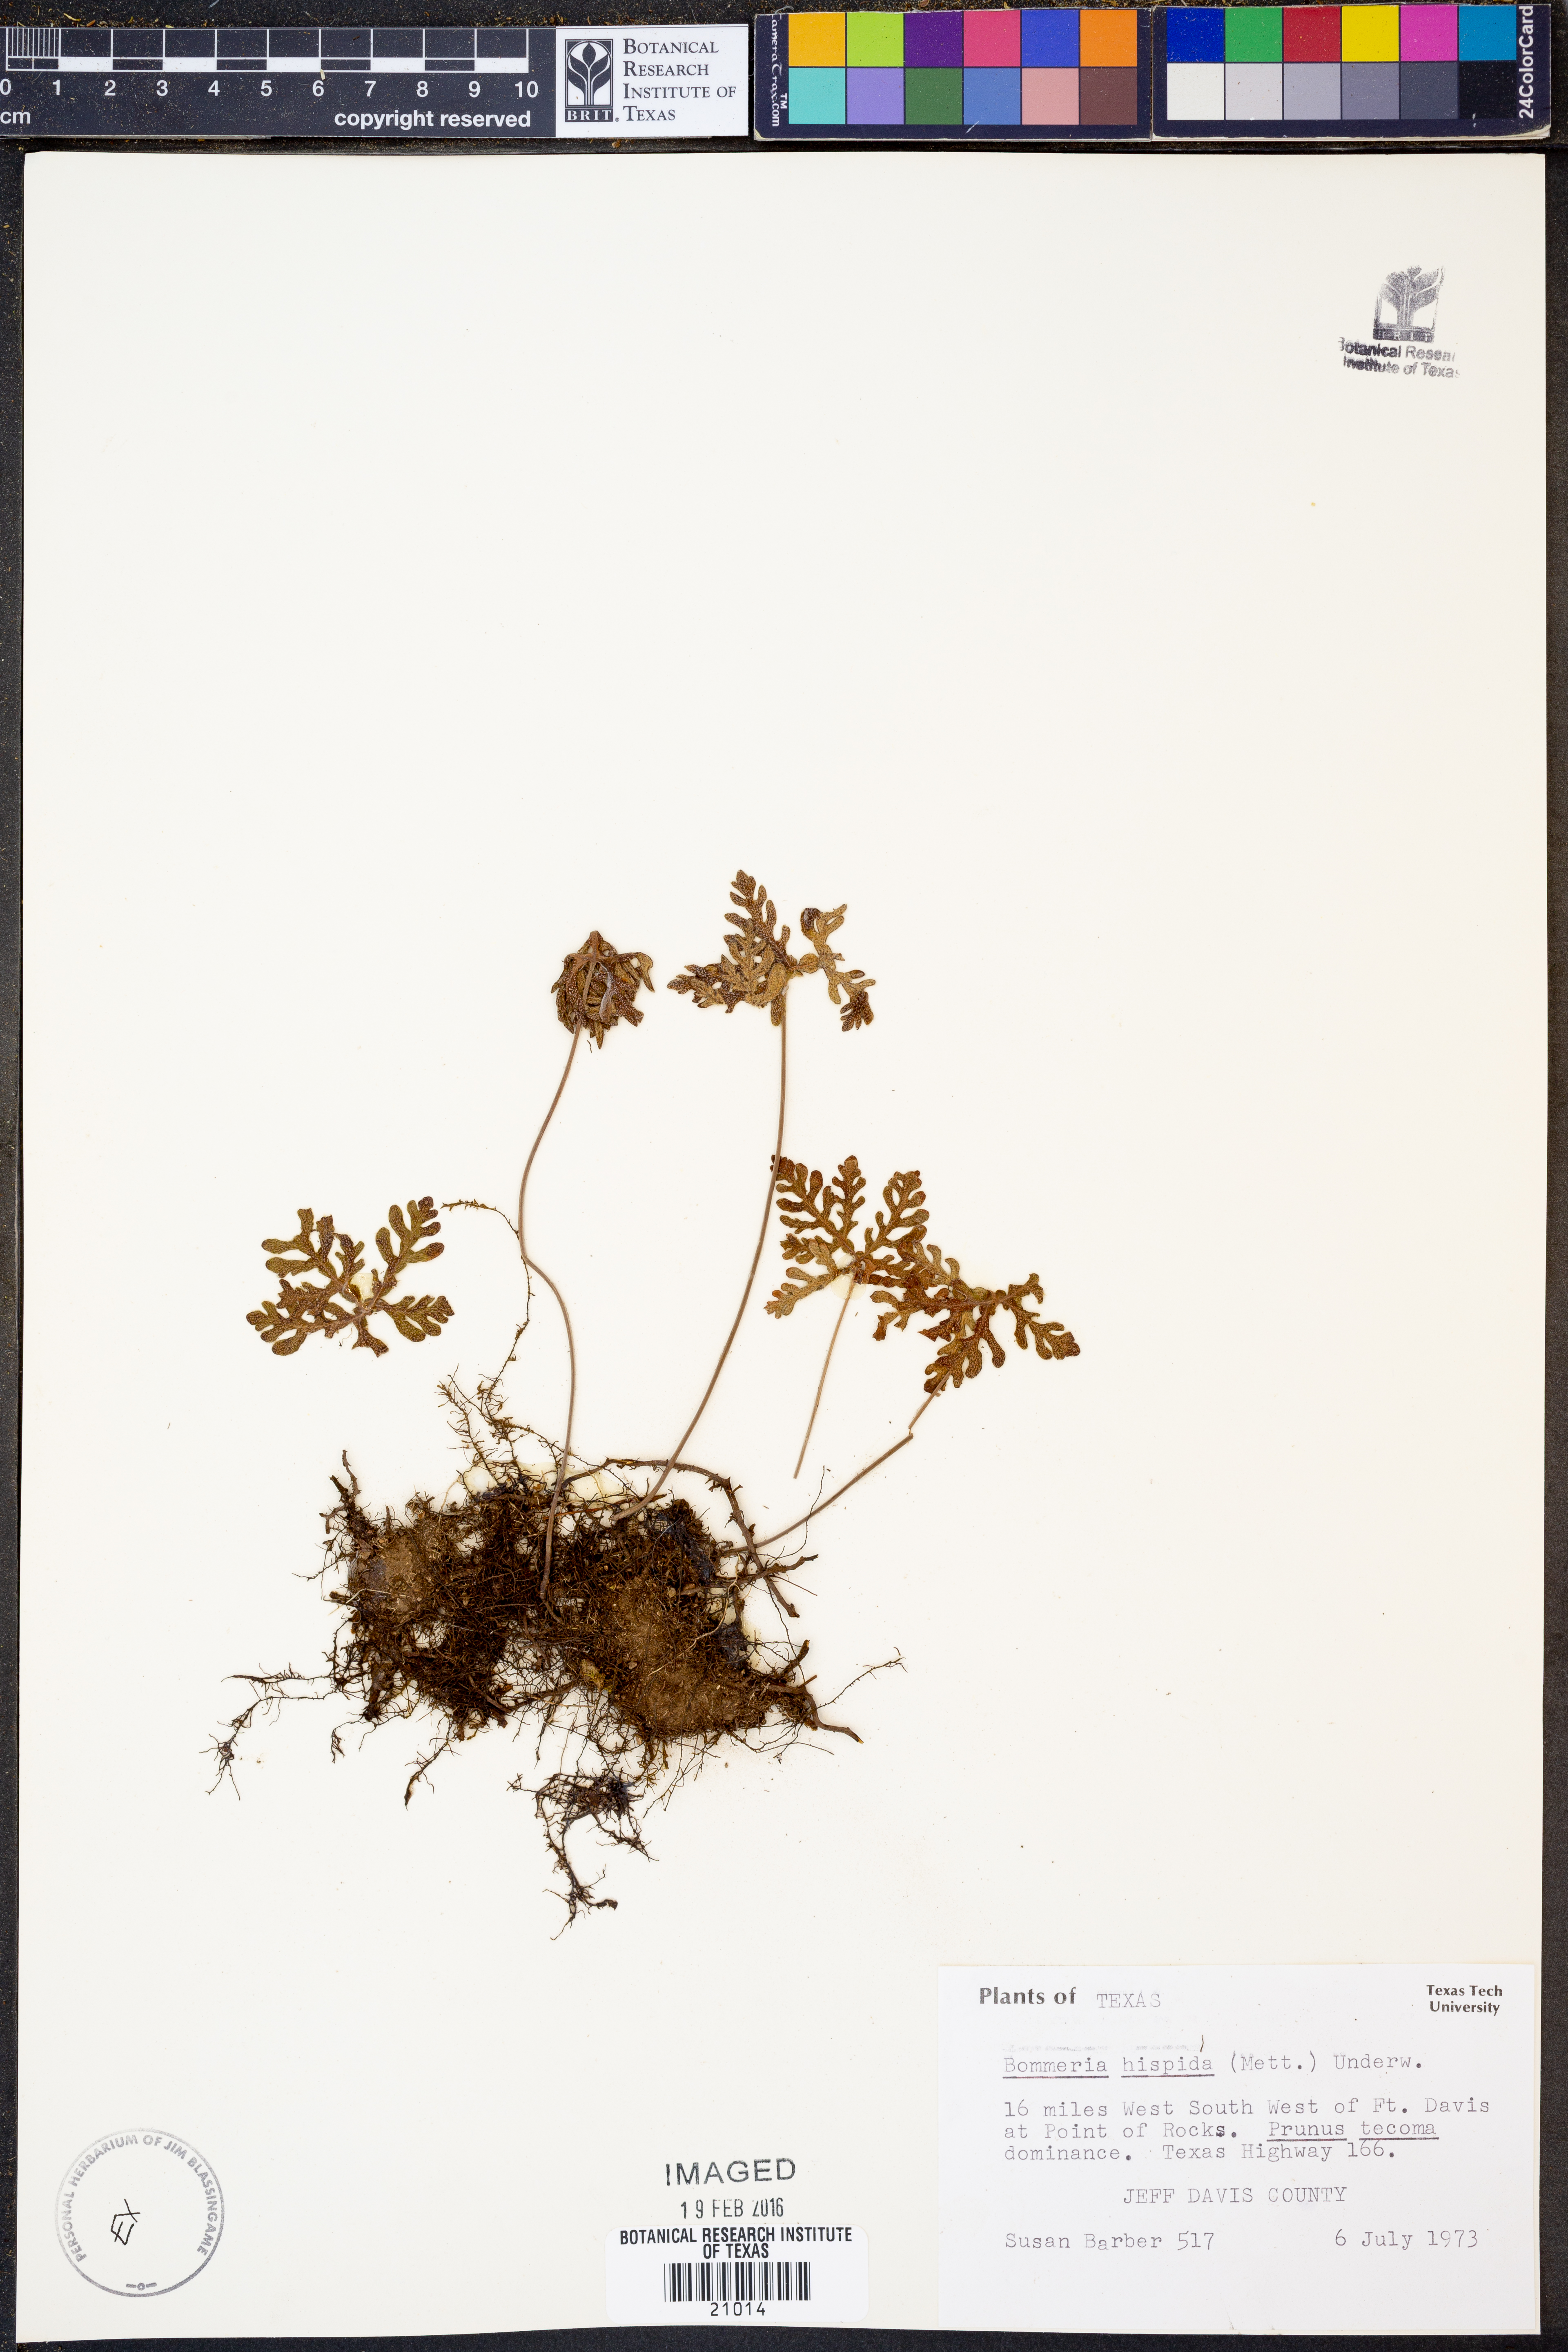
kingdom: Plantae
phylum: Tracheophyta
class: Polypodiopsida
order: Polypodiales
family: Pteridaceae
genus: Bommeria
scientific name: Bommeria hispida
